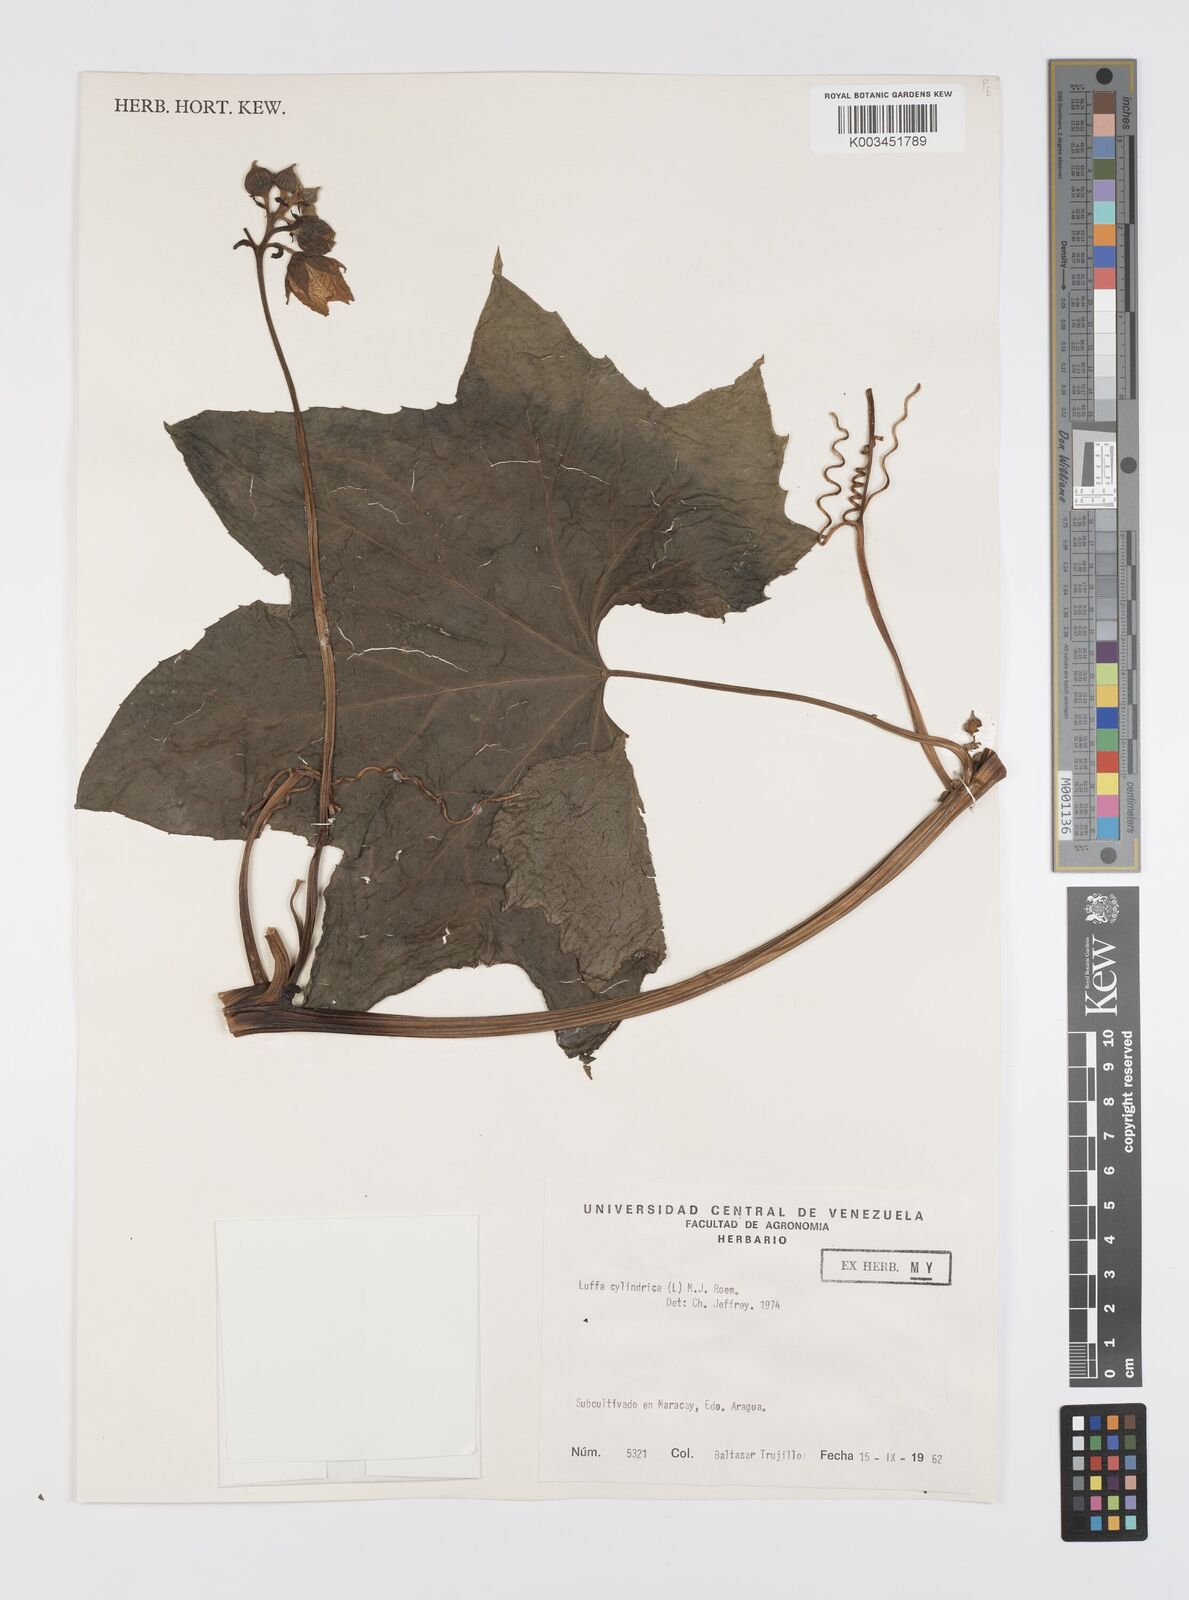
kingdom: Plantae
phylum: Tracheophyta
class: Magnoliopsida
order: Cucurbitales
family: Cucurbitaceae
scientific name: Cucurbitaceae
